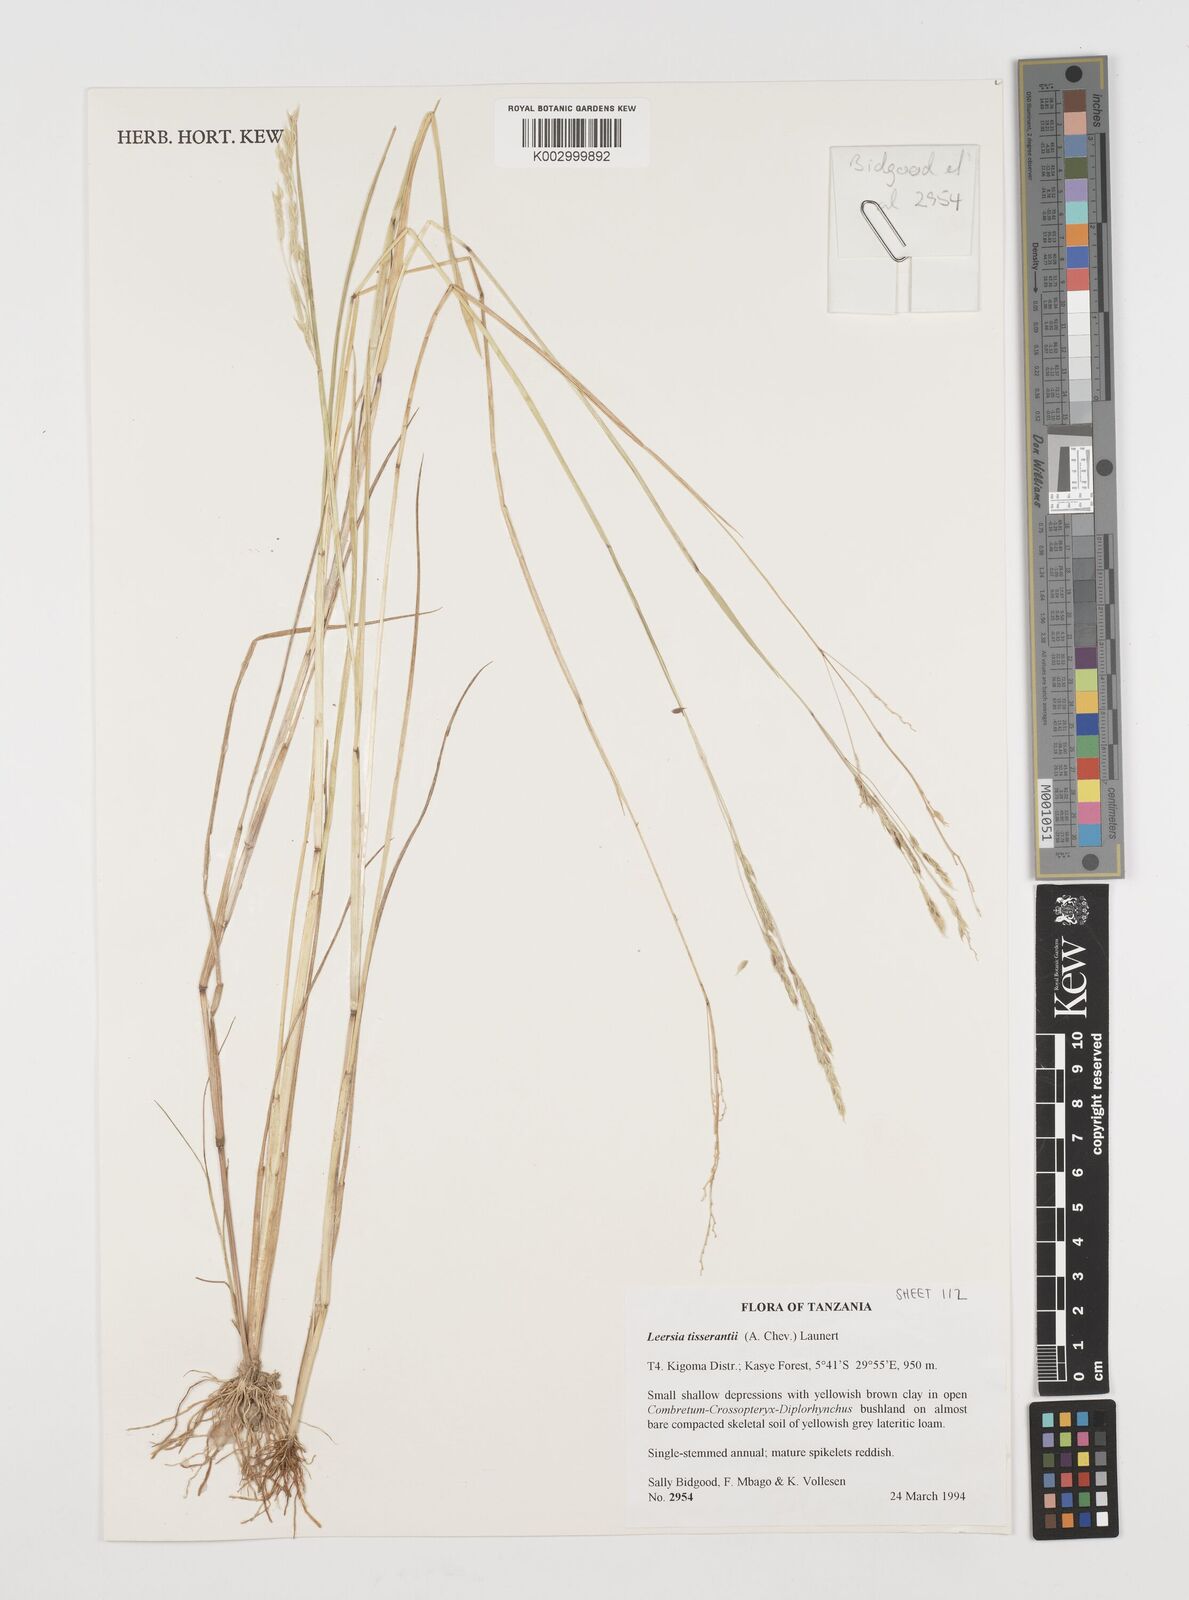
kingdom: Plantae
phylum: Tracheophyta
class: Liliopsida
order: Poales
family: Poaceae
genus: Leersia
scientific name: Leersia angustifolia
